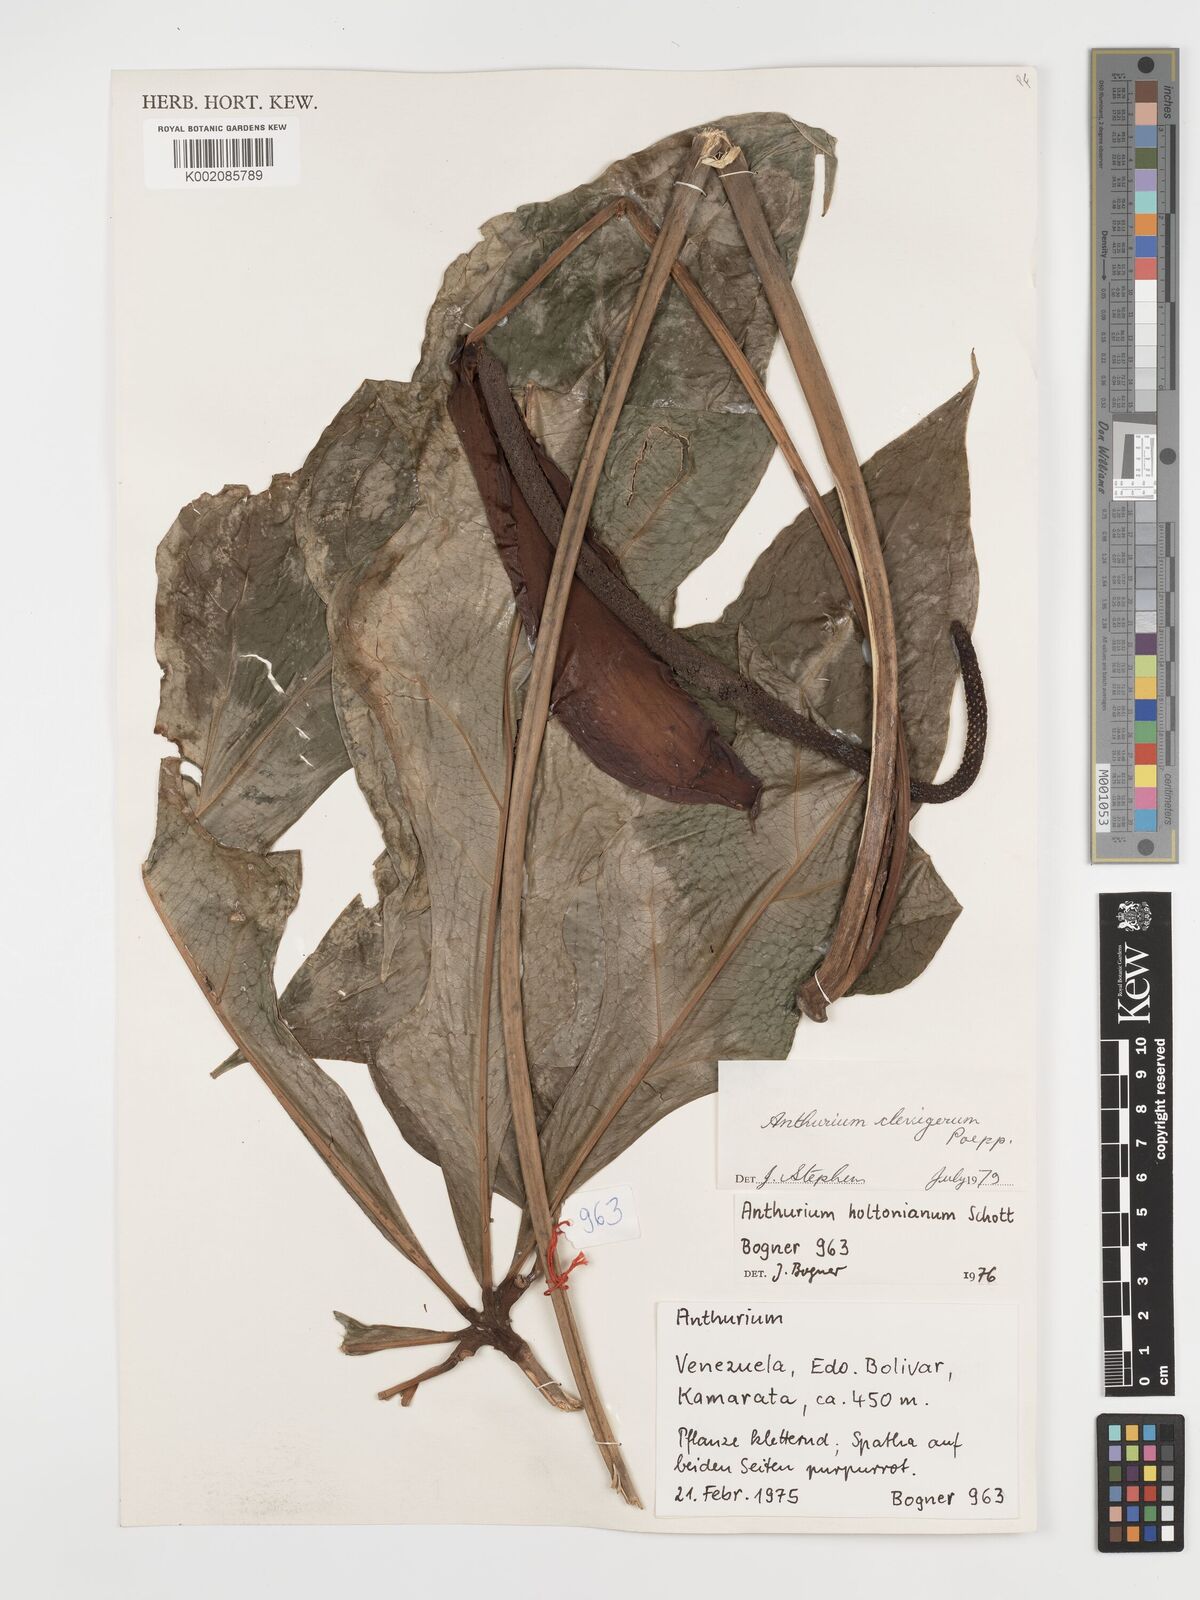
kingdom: Plantae
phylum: Tracheophyta
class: Liliopsida
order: Alismatales
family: Araceae
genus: Anthurium
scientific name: Anthurium clavigerum
